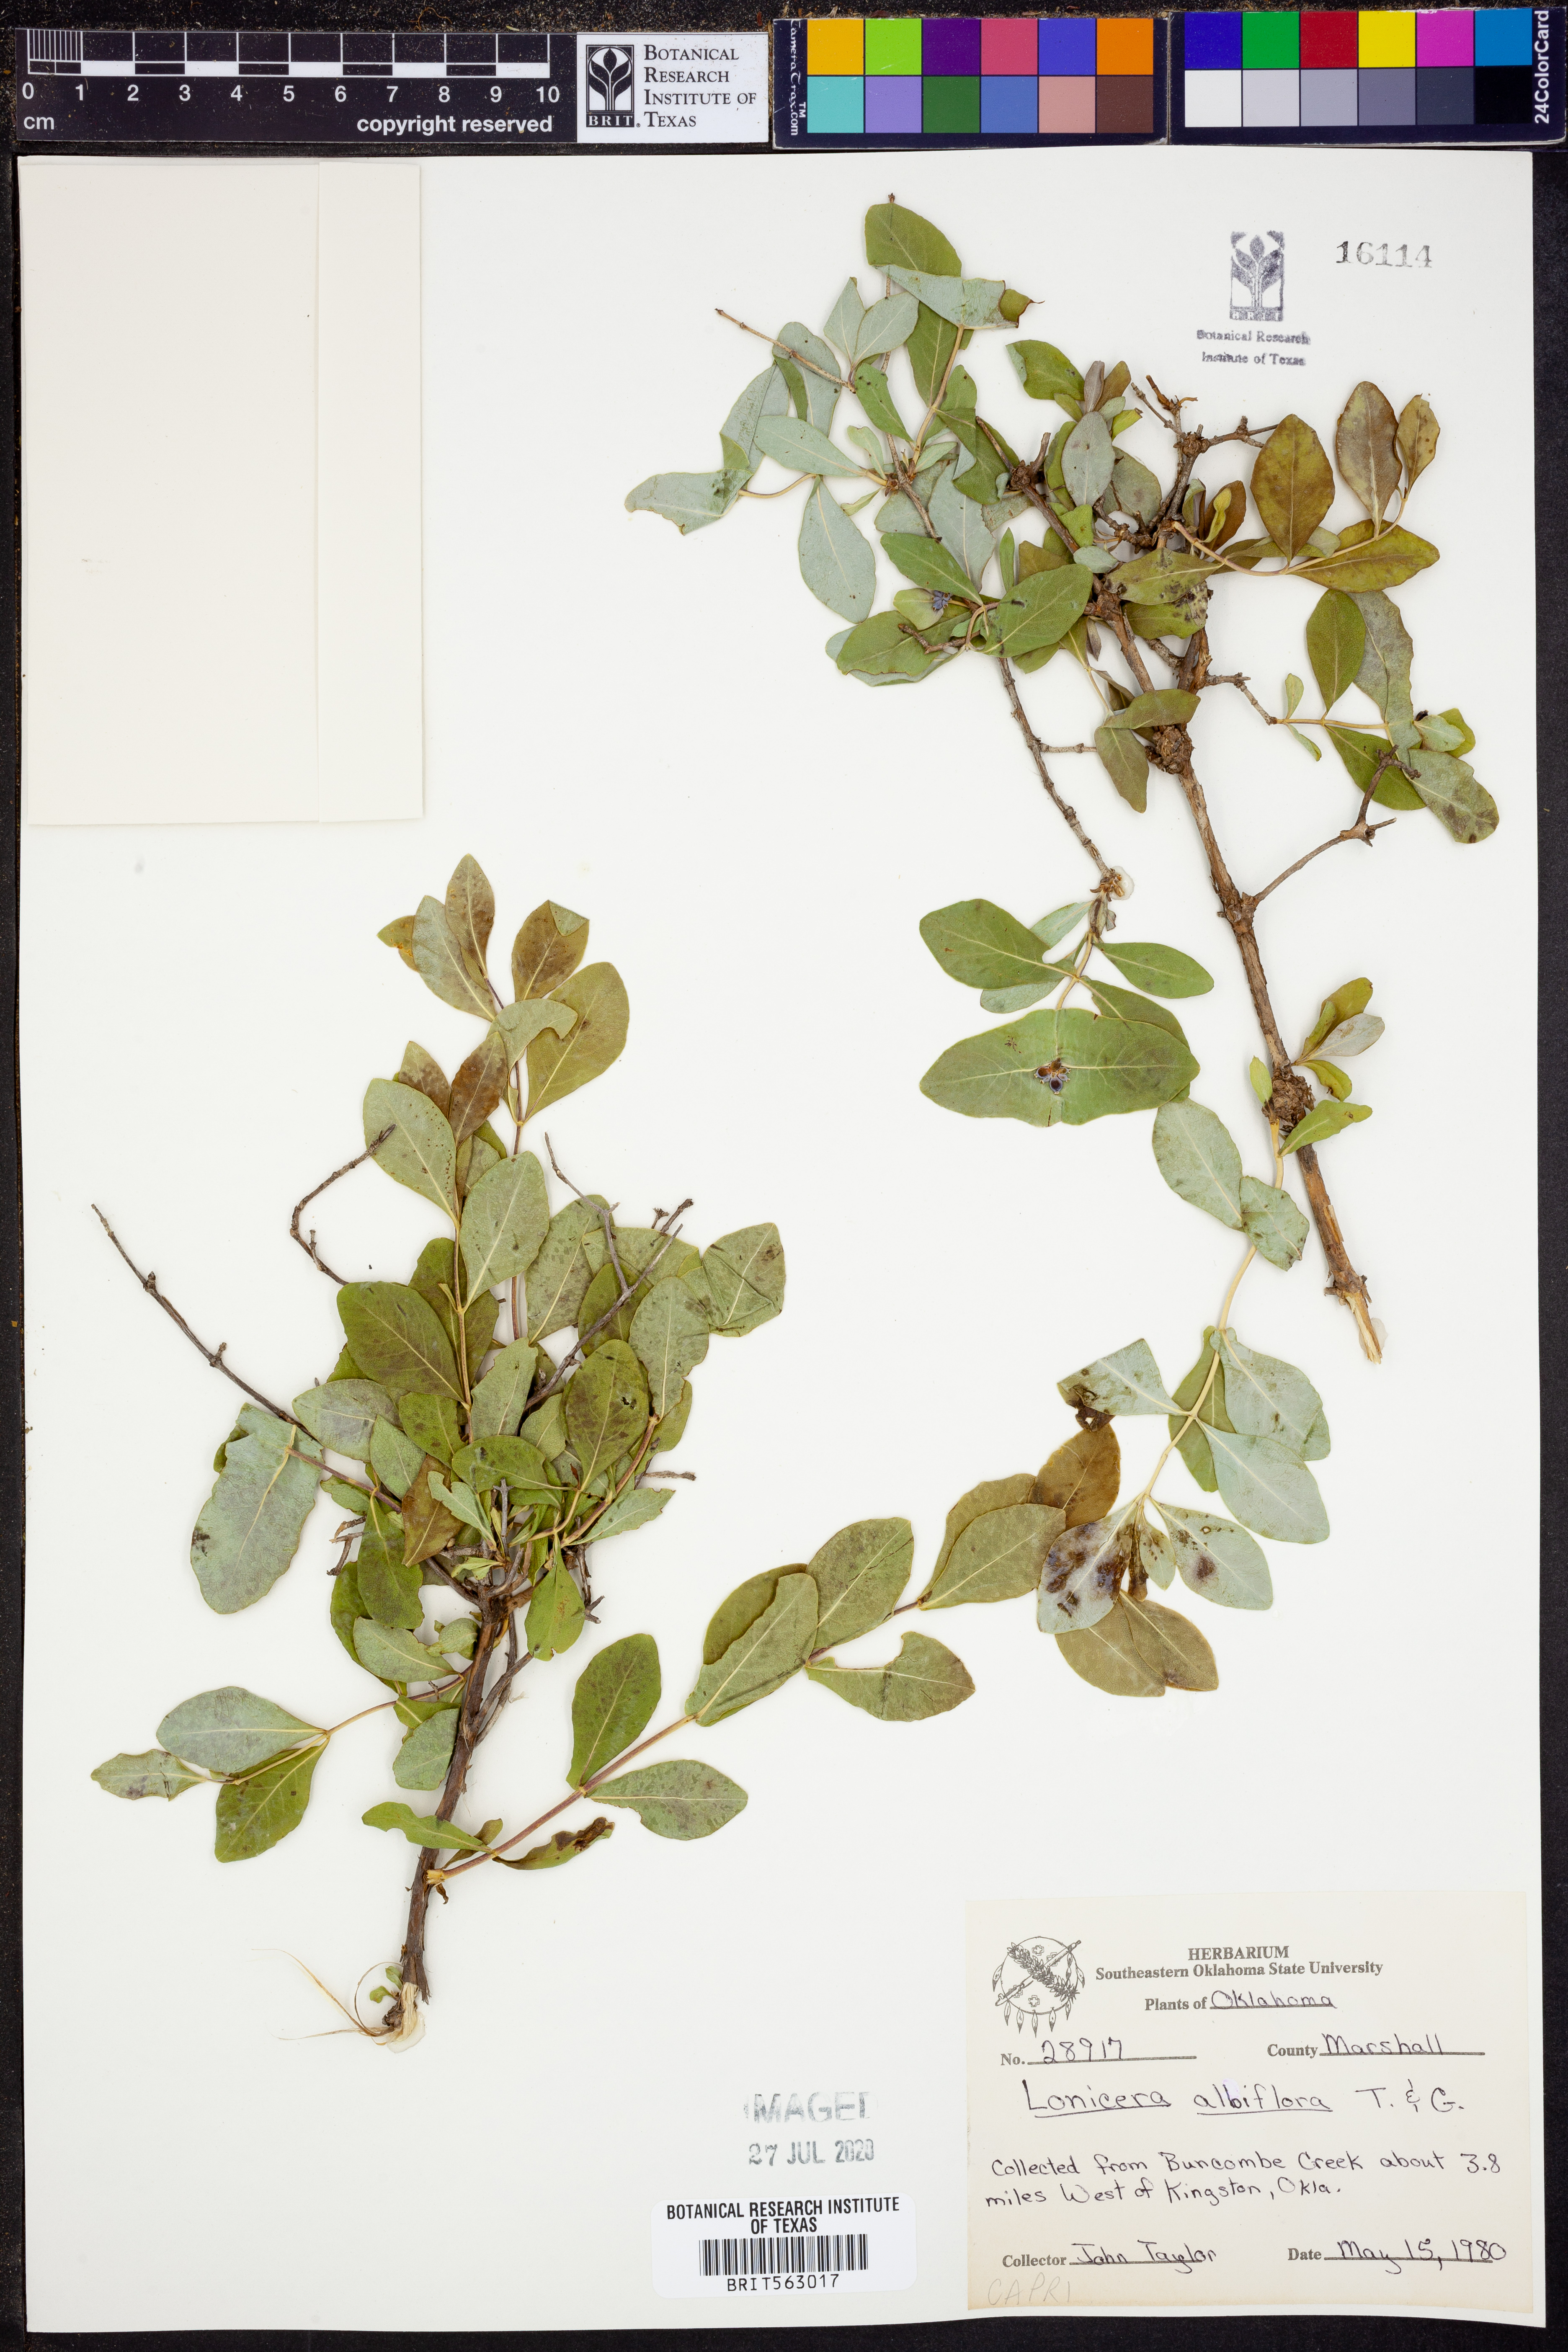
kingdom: Plantae
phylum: Tracheophyta
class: Magnoliopsida
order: Dipsacales
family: Caprifoliaceae
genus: Symphoricarpos
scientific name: Symphoricarpos albus
